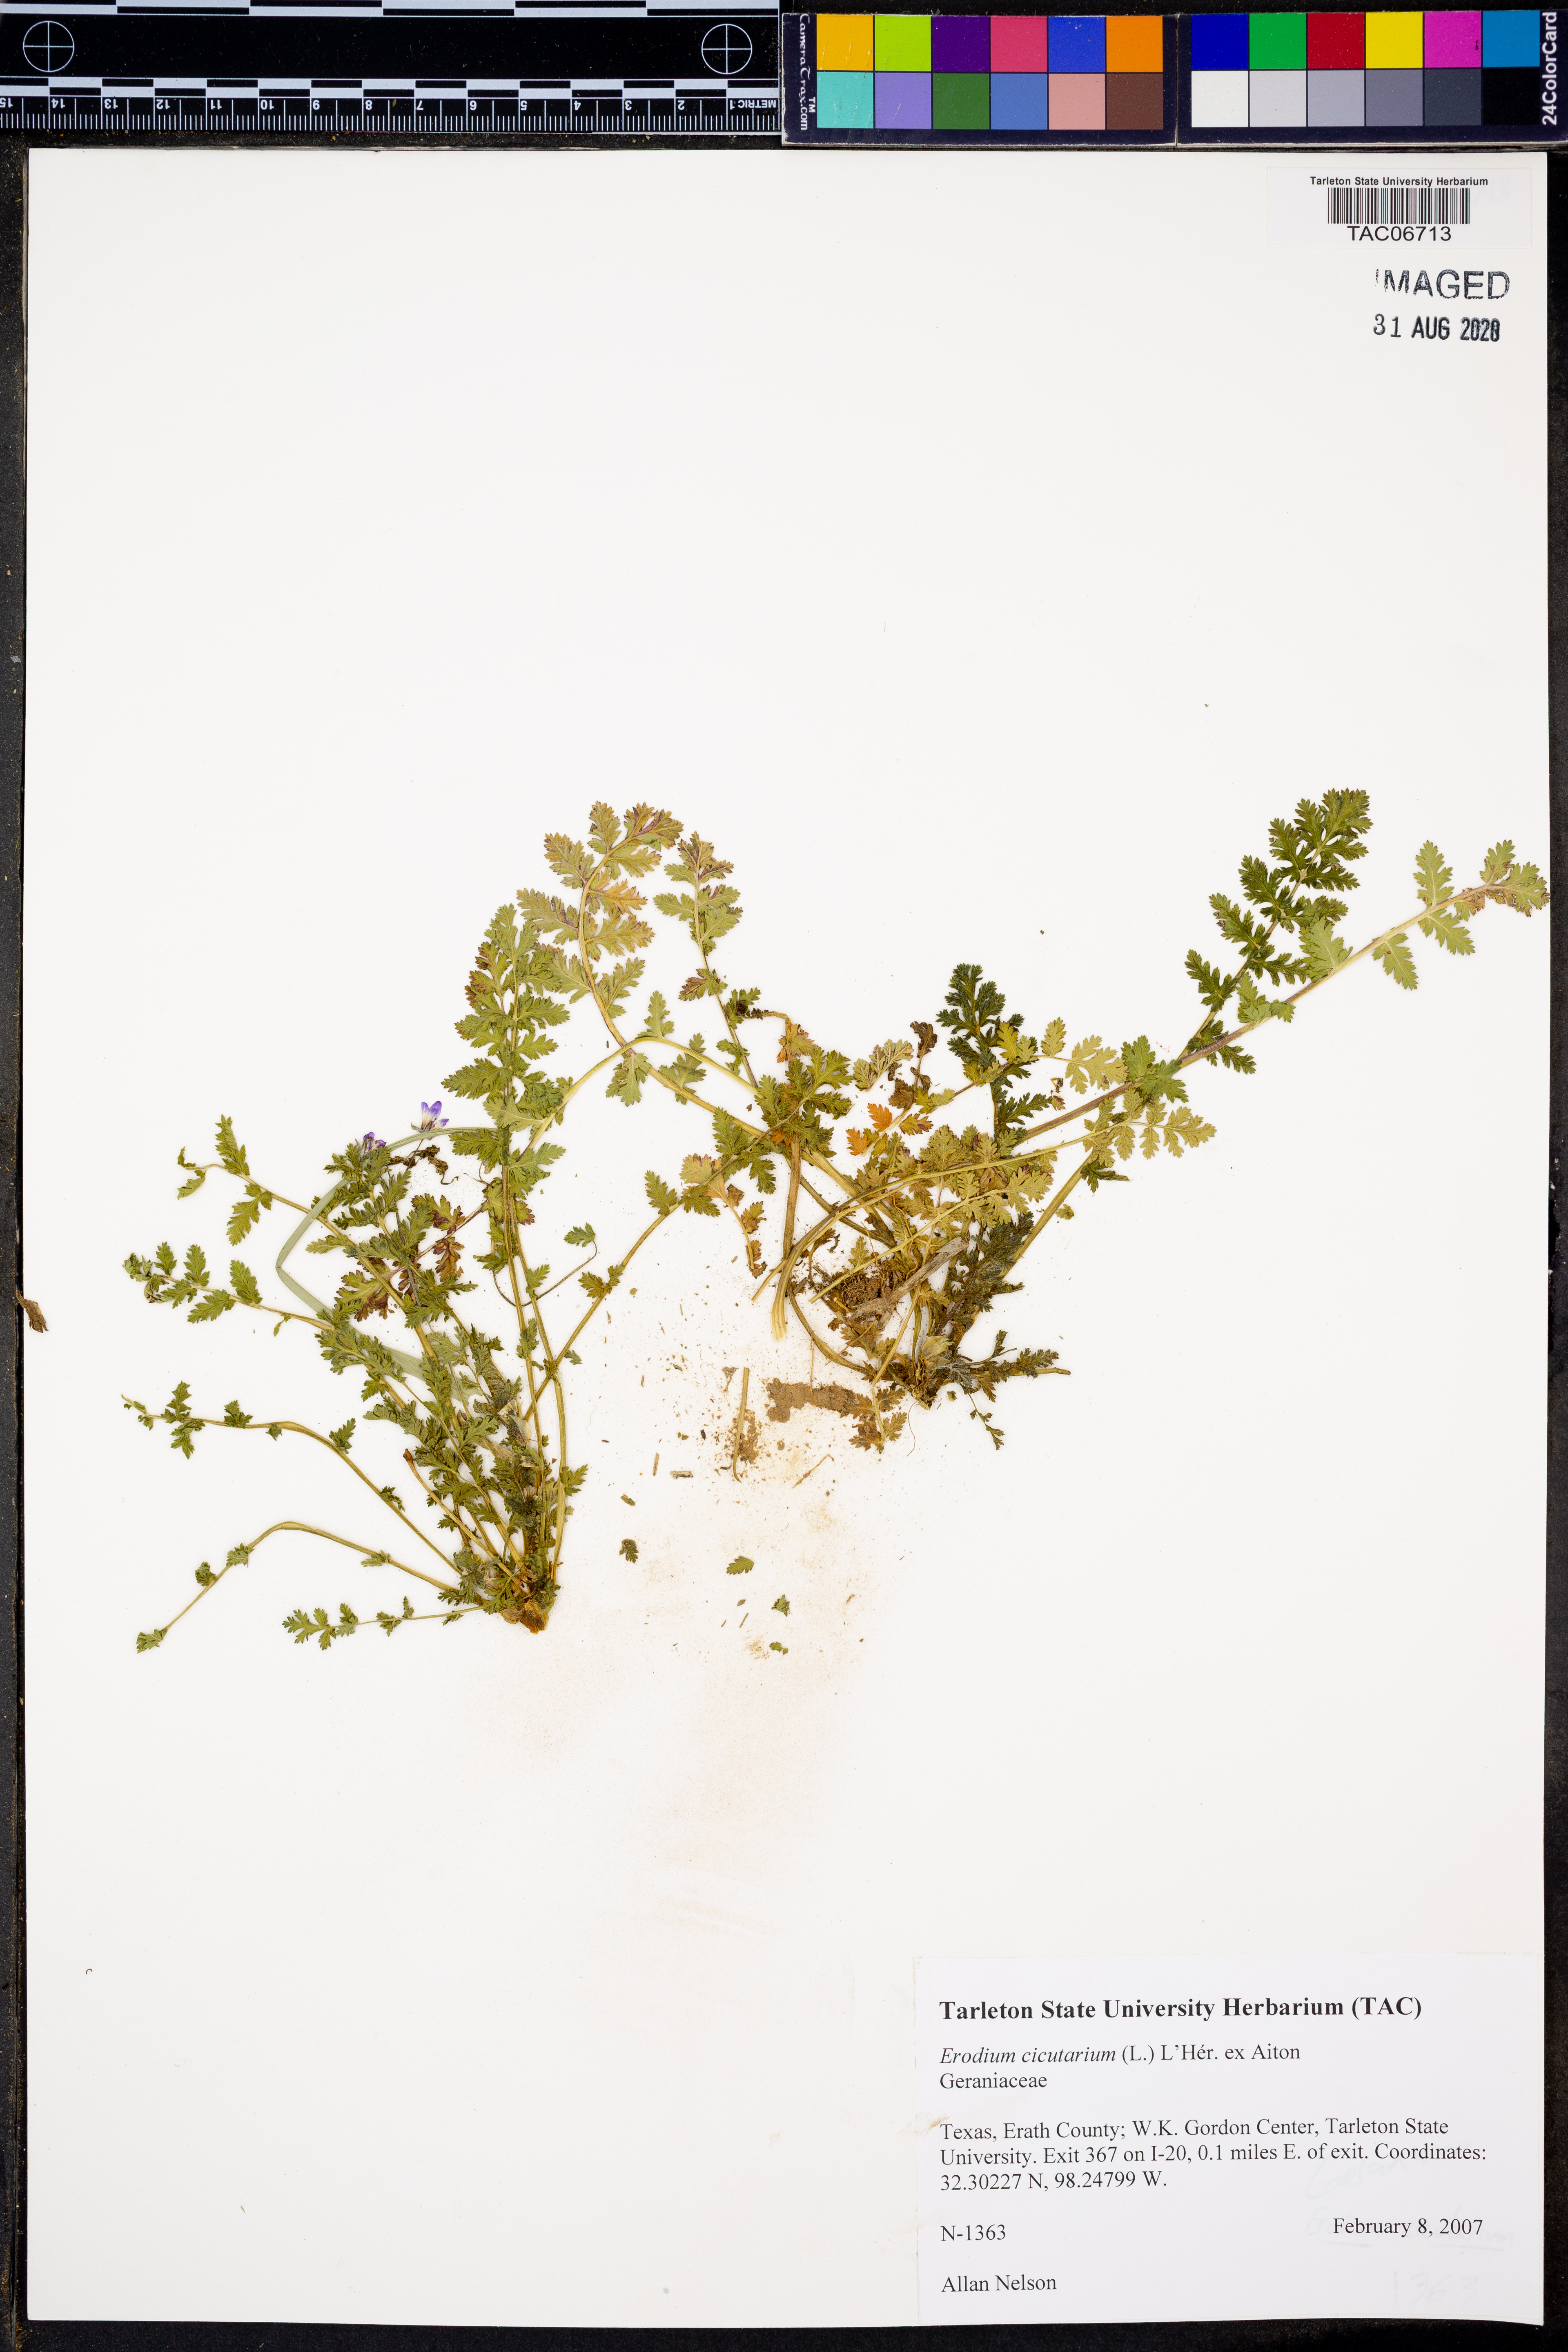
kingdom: Plantae
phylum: Tracheophyta
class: Magnoliopsida
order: Geraniales
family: Geraniaceae
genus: Erodium
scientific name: Erodium cicutarium
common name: Common stork's-bill
